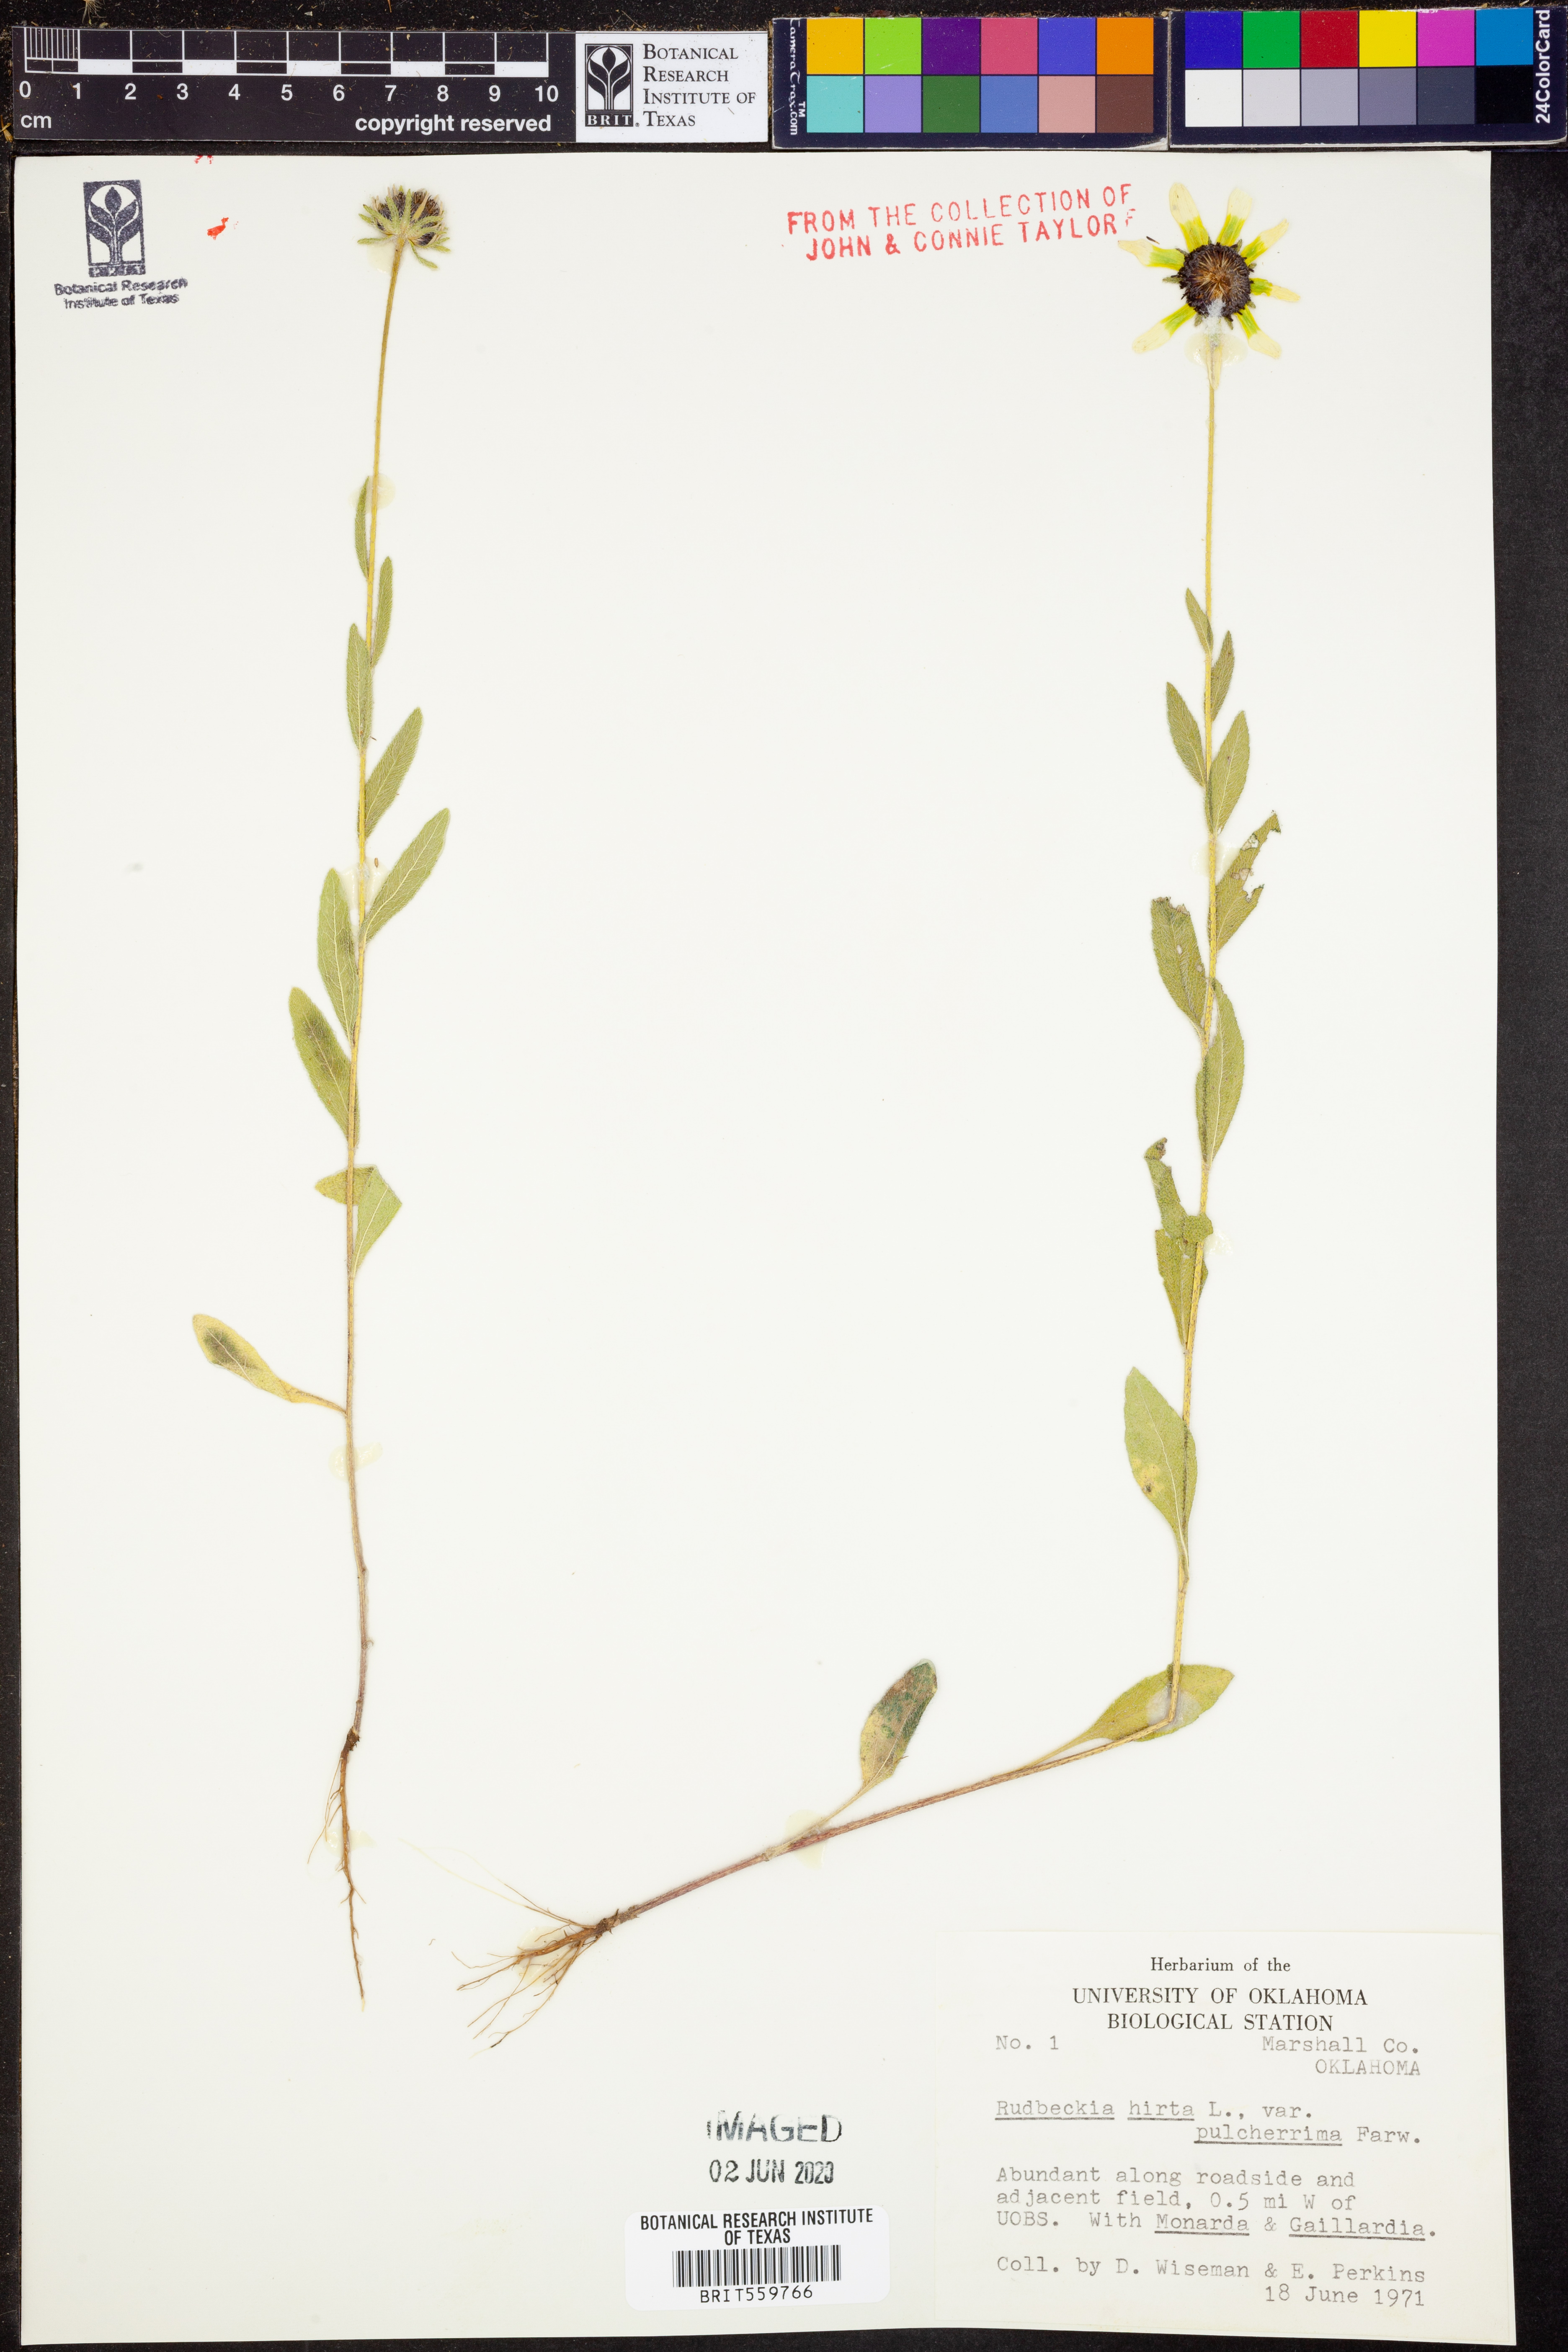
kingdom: Plantae
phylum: Tracheophyta
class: Magnoliopsida
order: Asterales
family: Asteraceae
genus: Rudbeckia
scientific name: Rudbeckia hirta
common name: Black-eyed-susan
